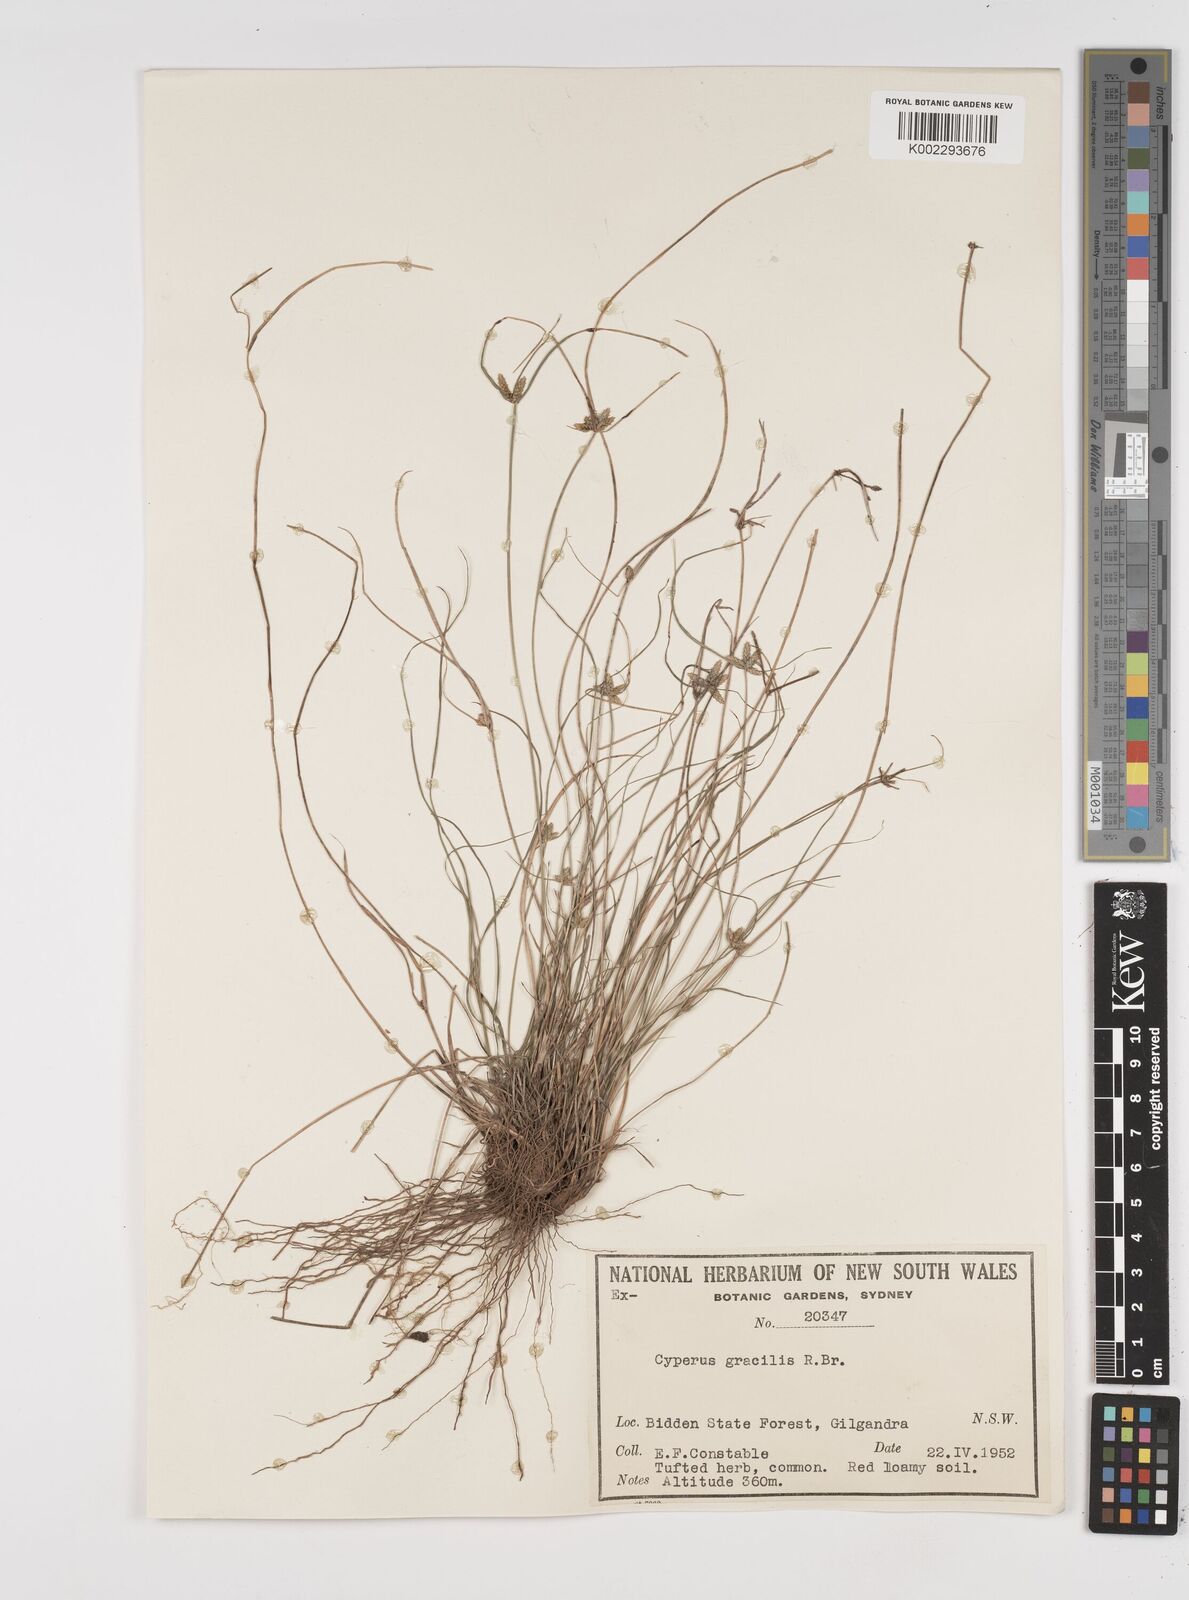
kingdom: Plantae
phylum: Tracheophyta
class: Liliopsida
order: Poales
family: Cyperaceae
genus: Cyperus
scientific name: Cyperus gracilis
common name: Slimjim flatsedge
